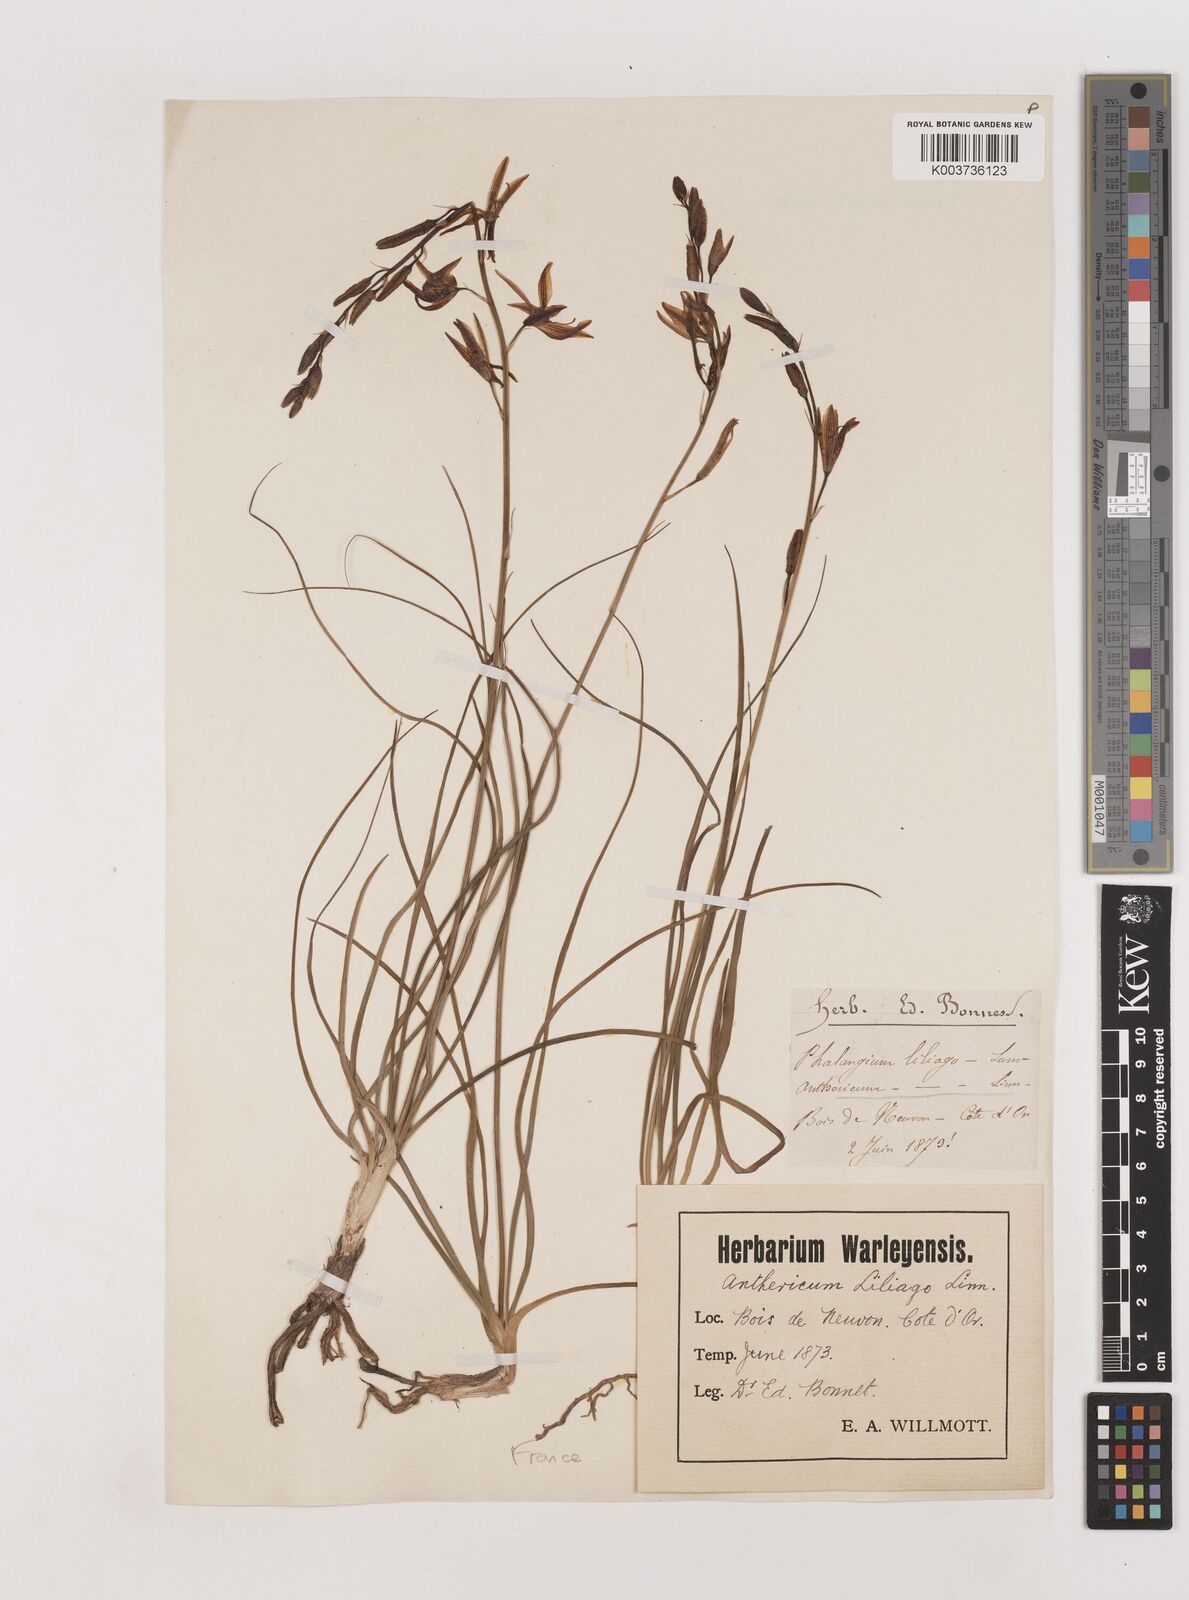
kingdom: Plantae
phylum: Tracheophyta
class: Liliopsida
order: Asparagales
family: Asparagaceae
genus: Anthericum
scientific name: Anthericum liliago
